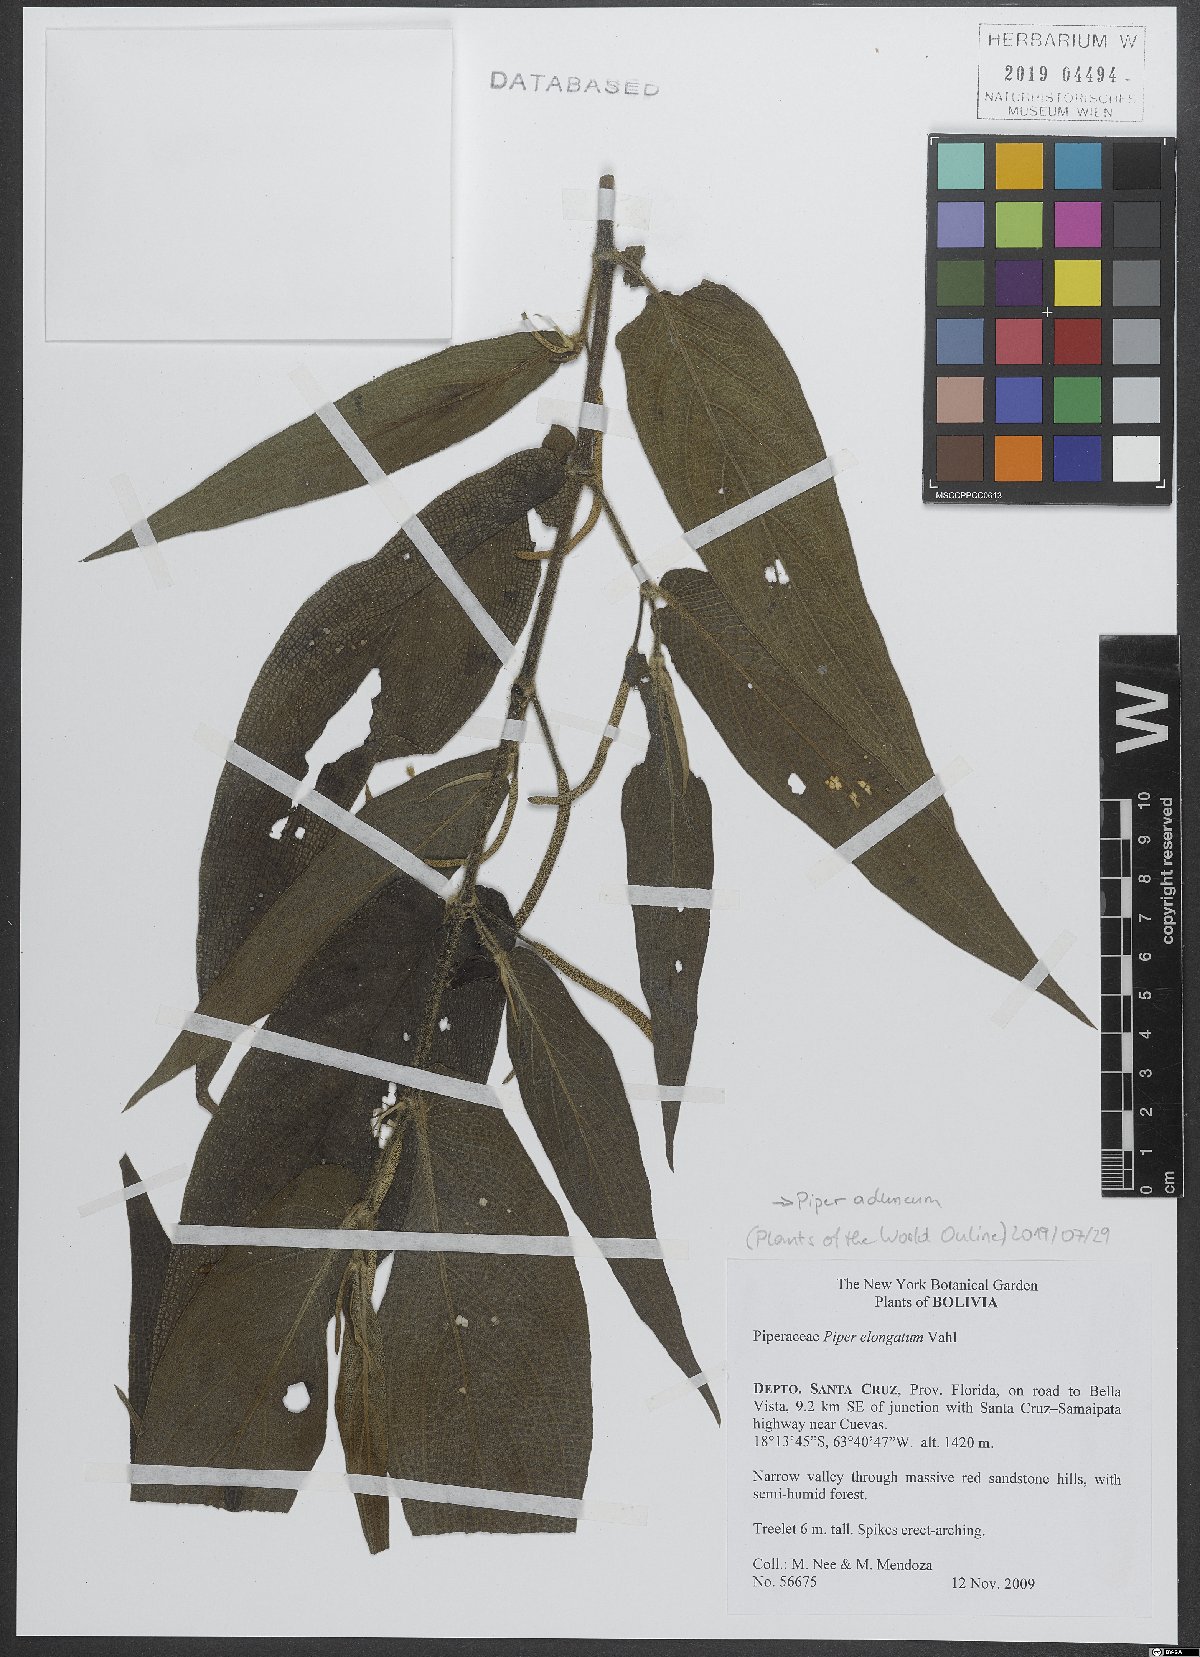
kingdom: Plantae
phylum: Tracheophyta
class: Magnoliopsida
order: Piperales
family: Piperaceae
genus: Piper
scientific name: Piper aduncum
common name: Spiked pepper
